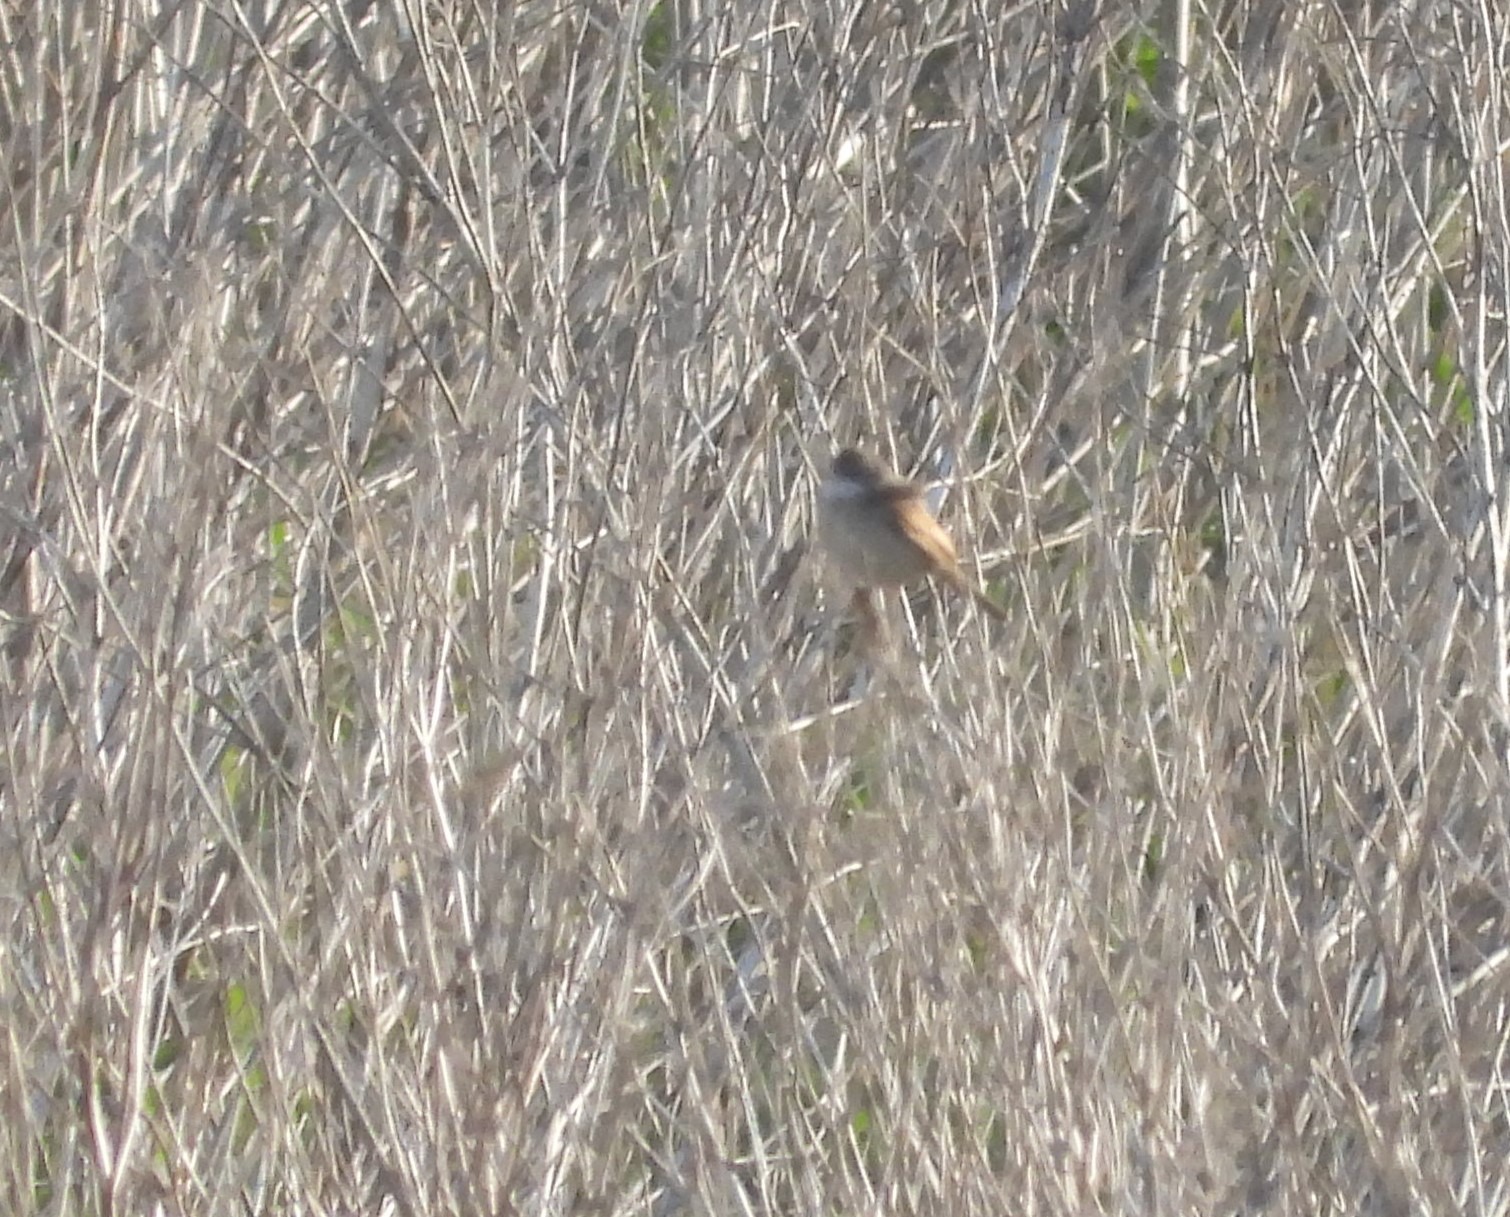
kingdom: Animalia
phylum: Chordata
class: Aves
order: Passeriformes
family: Sylviidae
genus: Sylvia
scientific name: Sylvia communis
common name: Tornsanger
